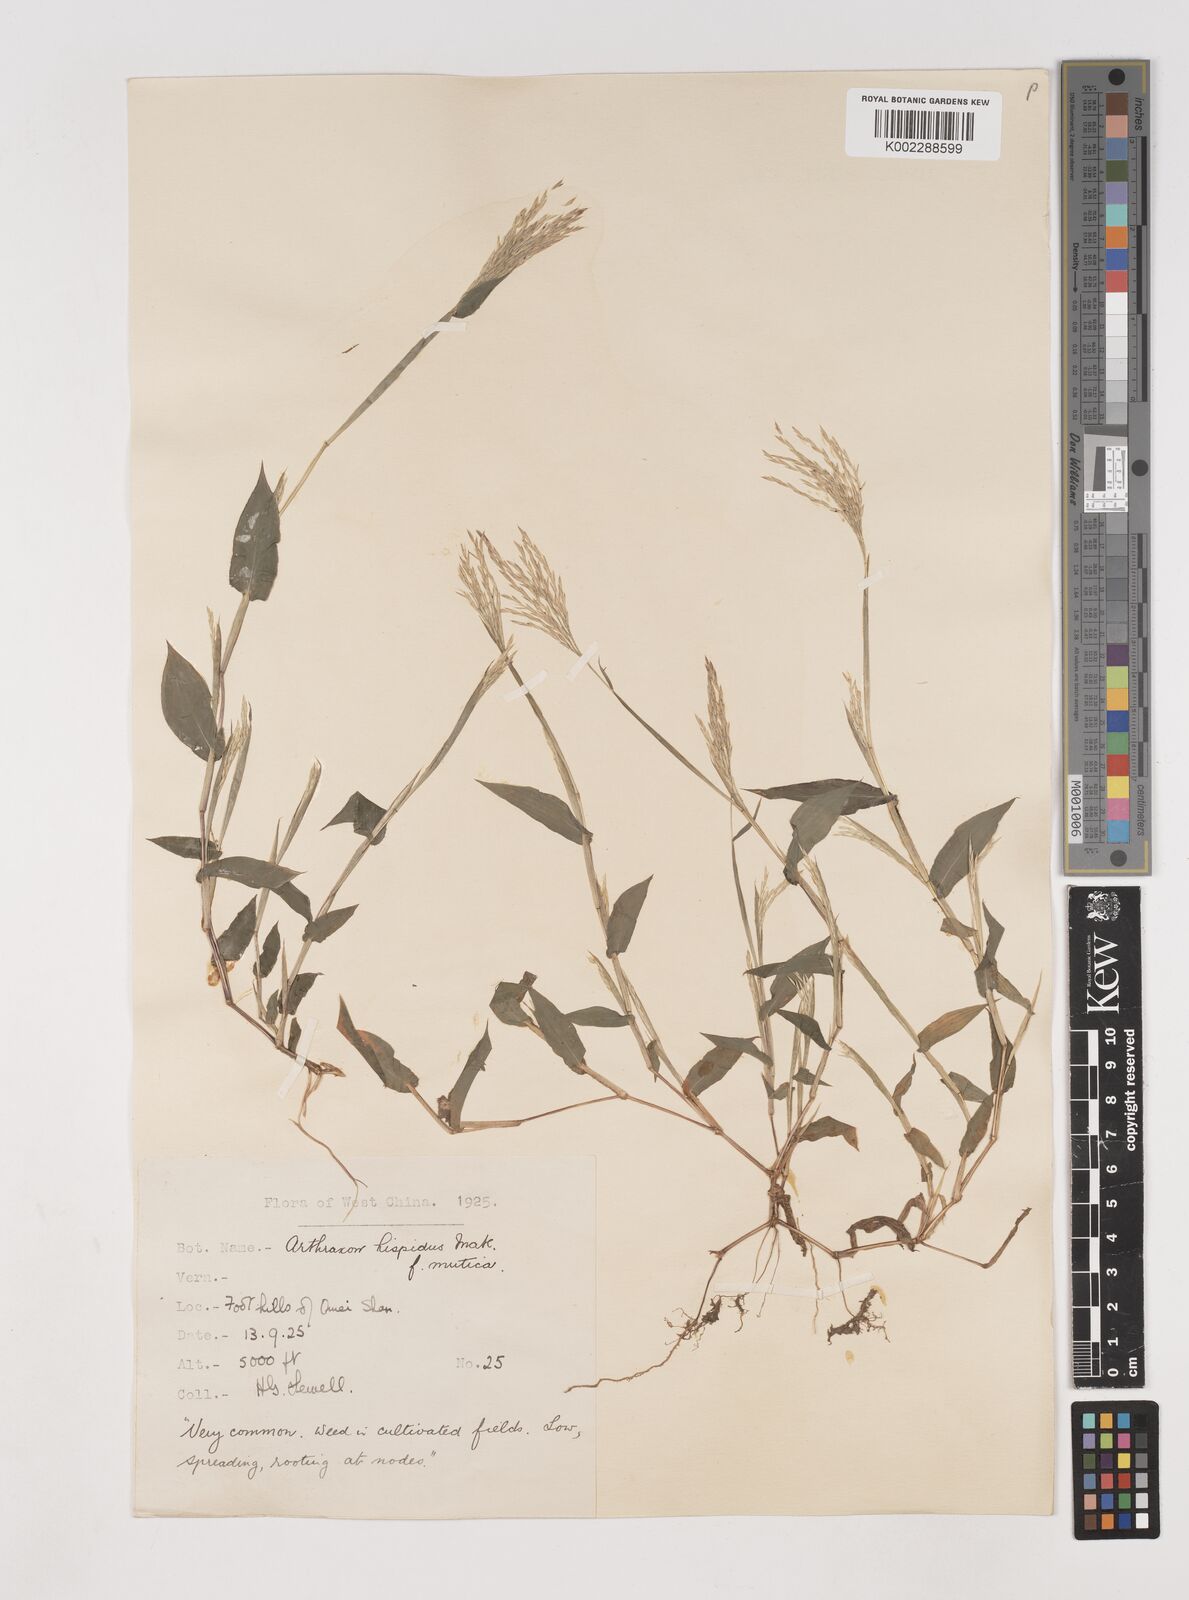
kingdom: Plantae
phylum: Tracheophyta
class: Liliopsida
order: Poales
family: Poaceae
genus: Arthraxon
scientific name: Arthraxon hispidus
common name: Small carpgrass
